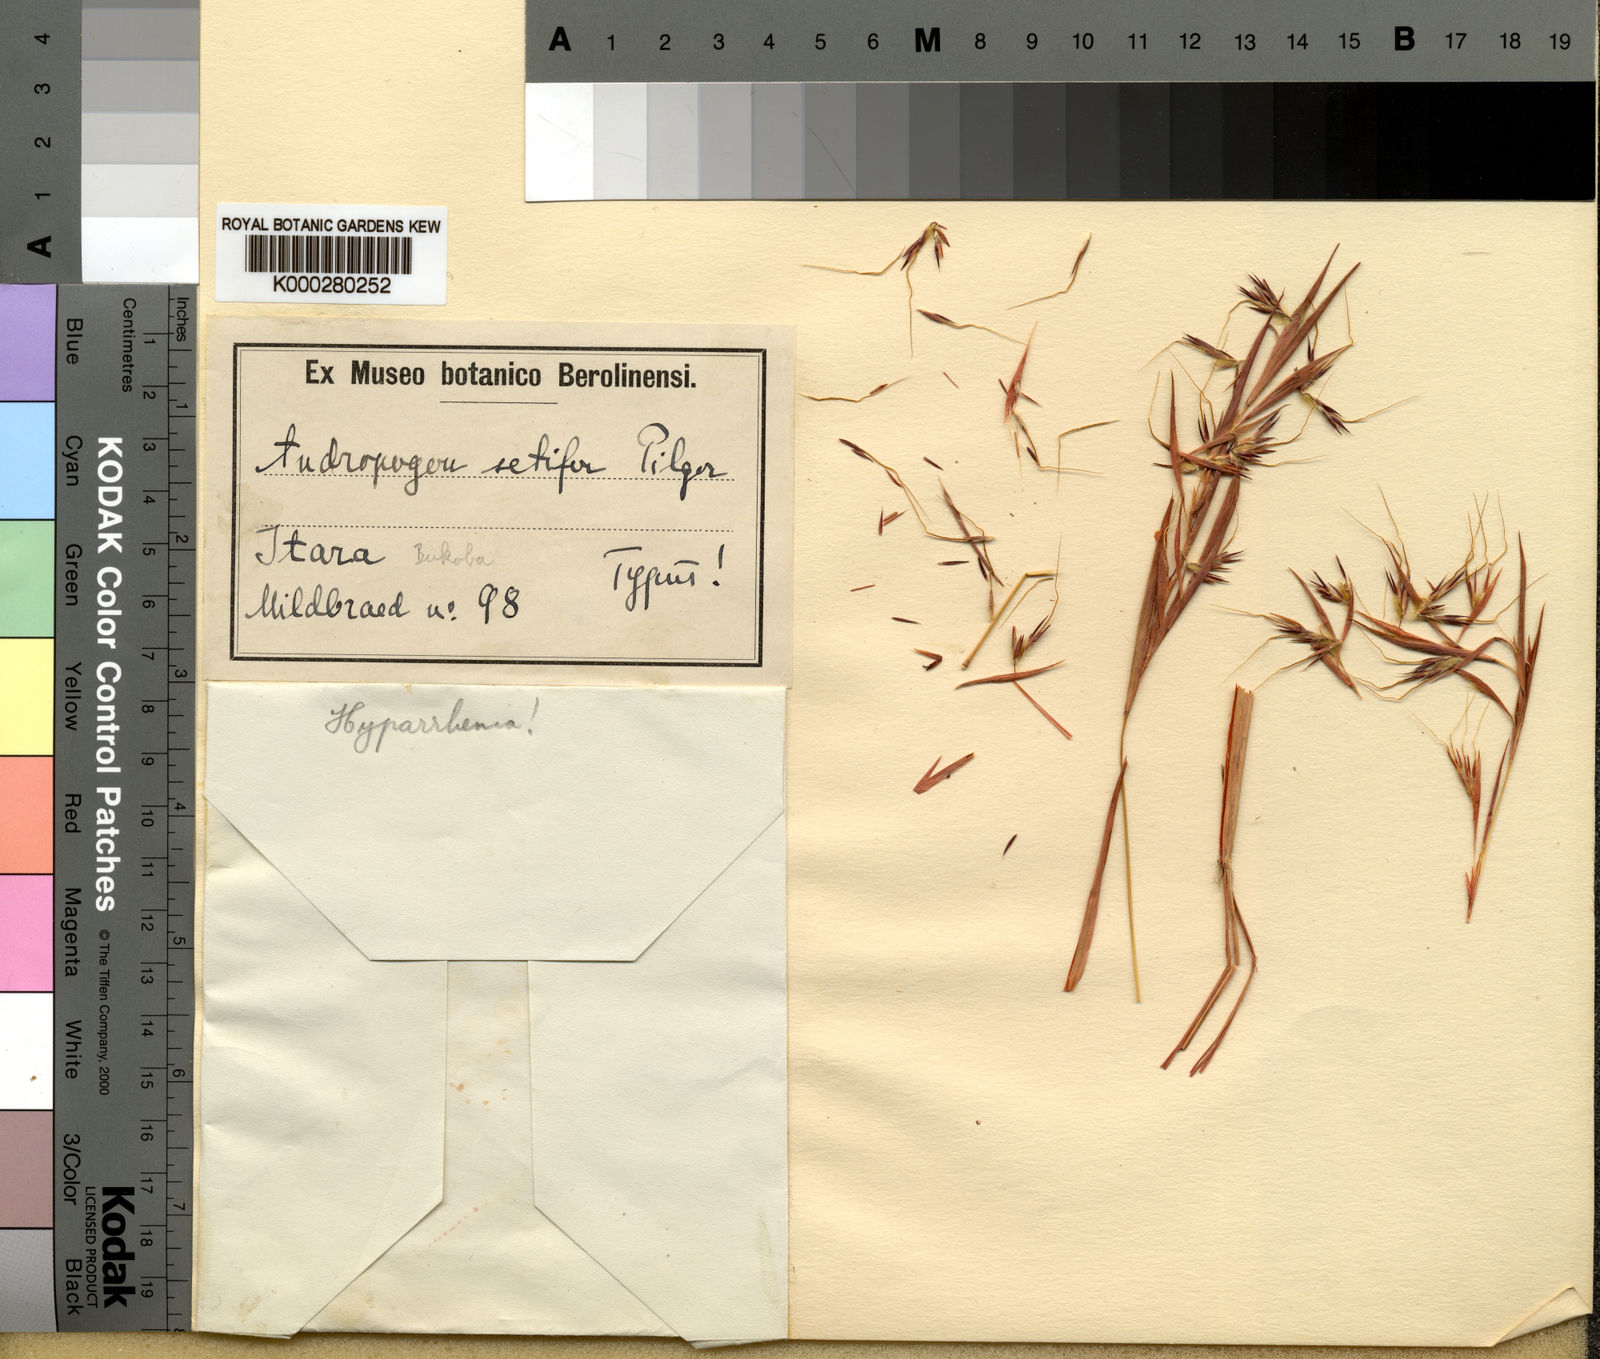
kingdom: Plantae
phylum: Tracheophyta
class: Liliopsida
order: Poales
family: Poaceae
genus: Hyparrhenia
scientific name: Hyparrhenia bracteata
